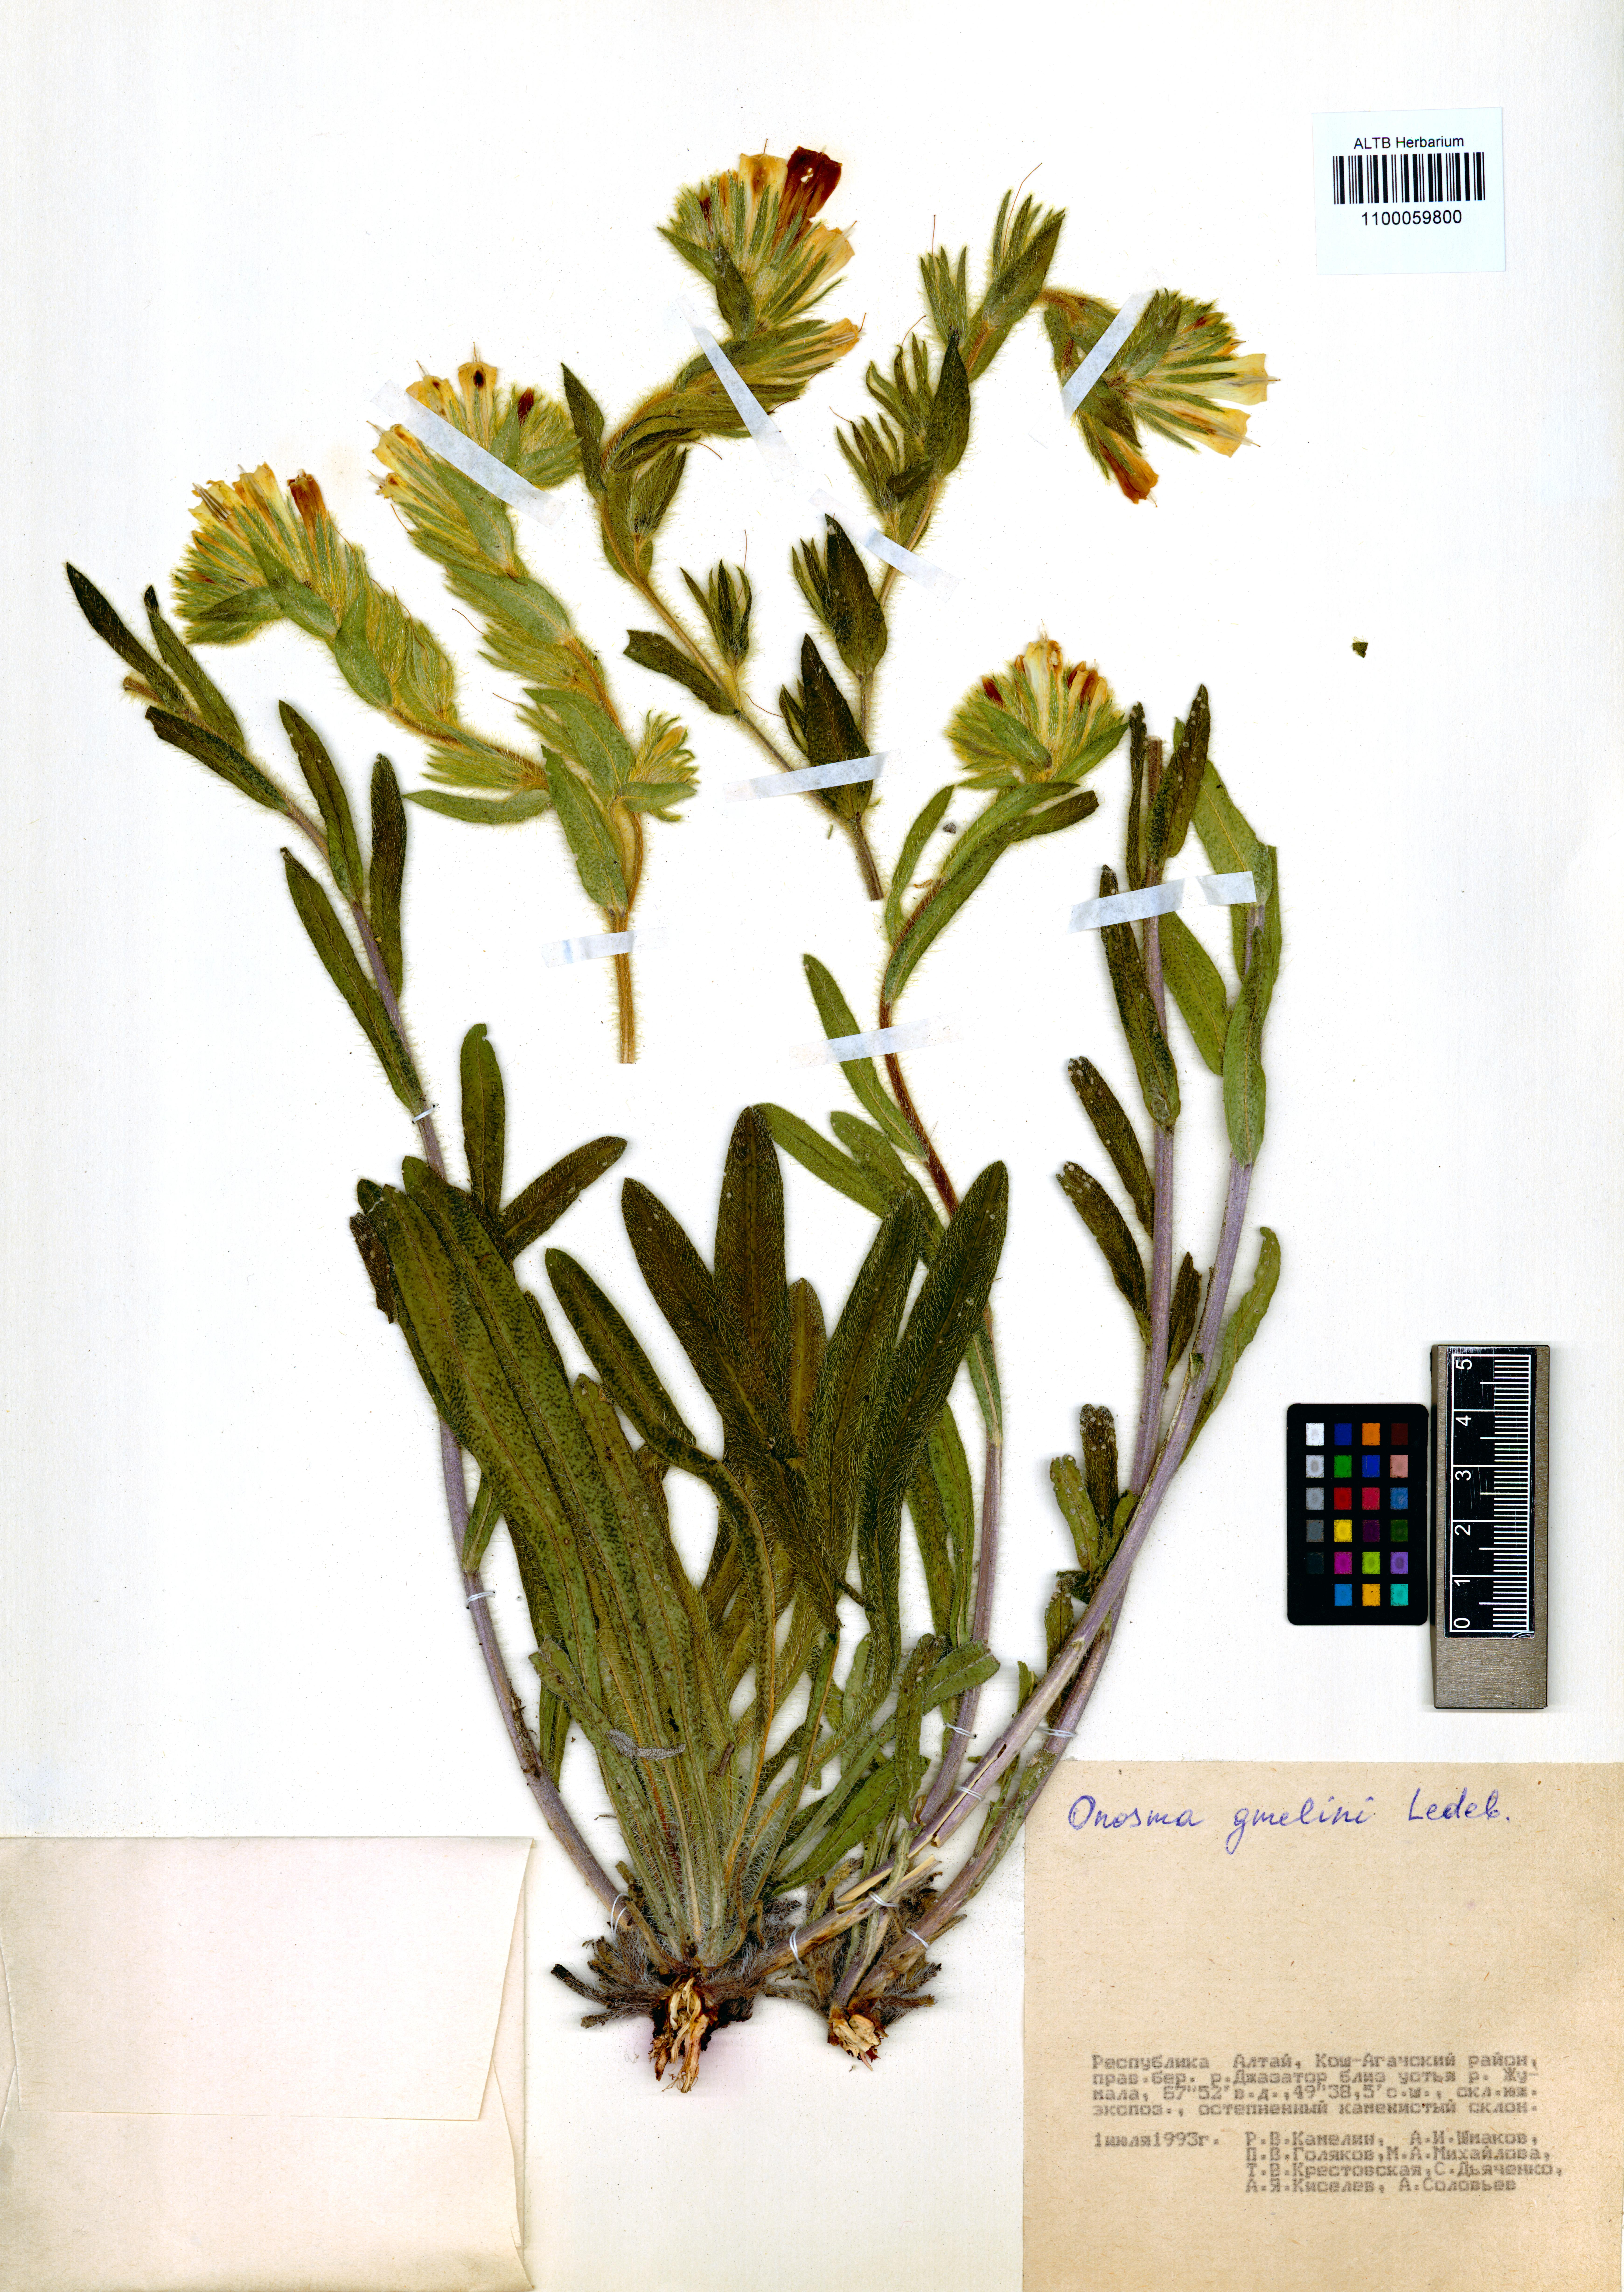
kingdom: Plantae
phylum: Tracheophyta
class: Magnoliopsida
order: Boraginales
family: Boraginaceae
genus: Onosma
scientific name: Onosma gmelinii
